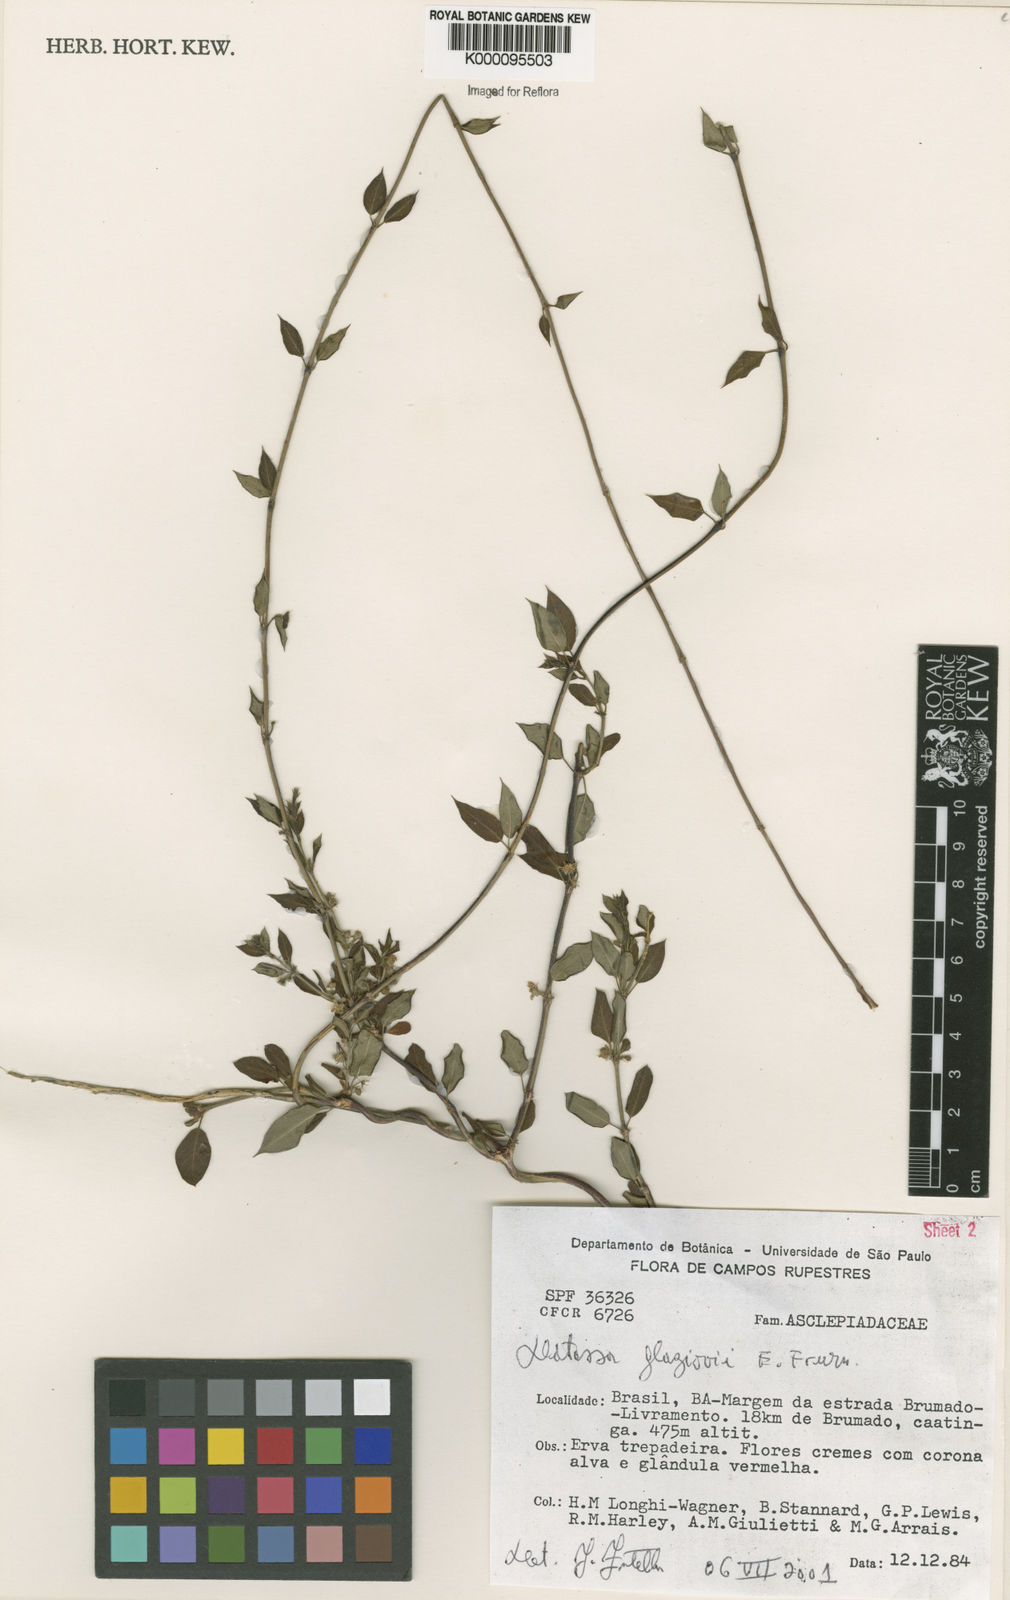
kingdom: Plantae
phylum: Tracheophyta
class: Magnoliopsida
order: Gentianales
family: Apocynaceae
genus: Ditassa
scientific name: Ditassa
